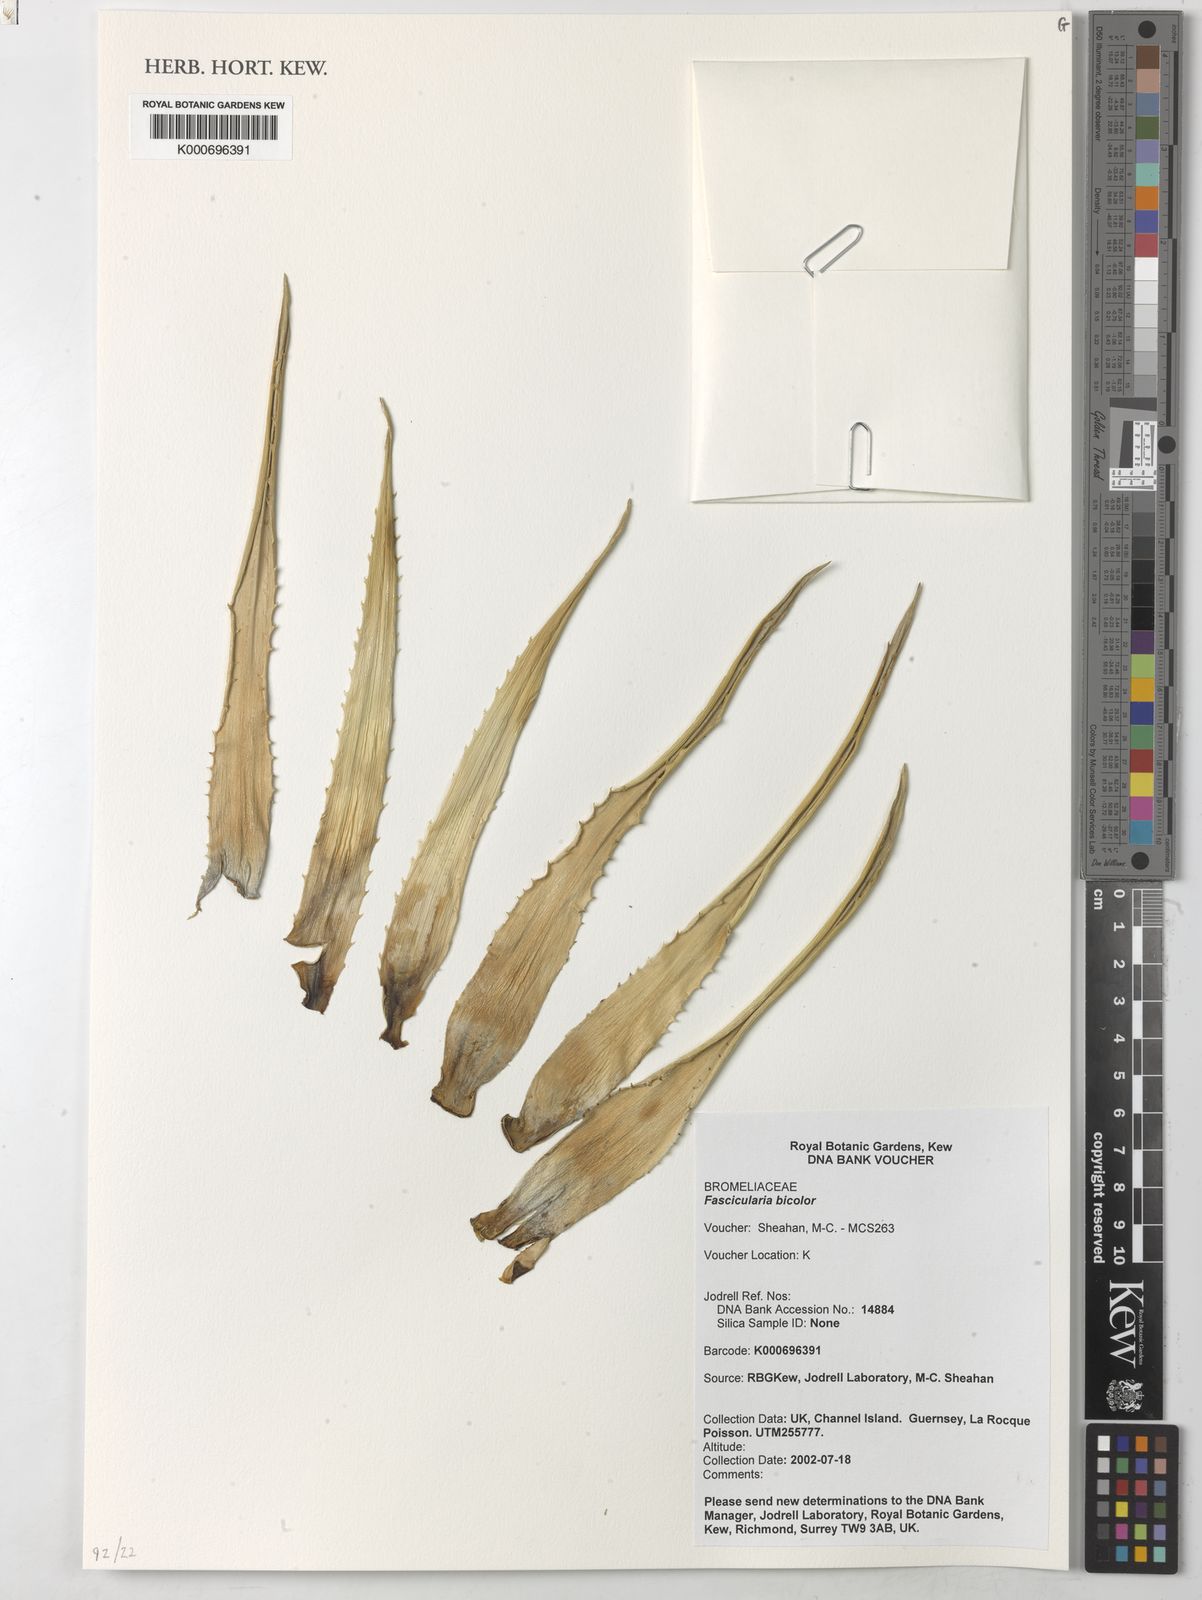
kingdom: Plantae
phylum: Tracheophyta
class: Liliopsida
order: Poales
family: Bromeliaceae
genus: Fascicularia
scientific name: Fascicularia bicolor
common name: Rhodostachys
